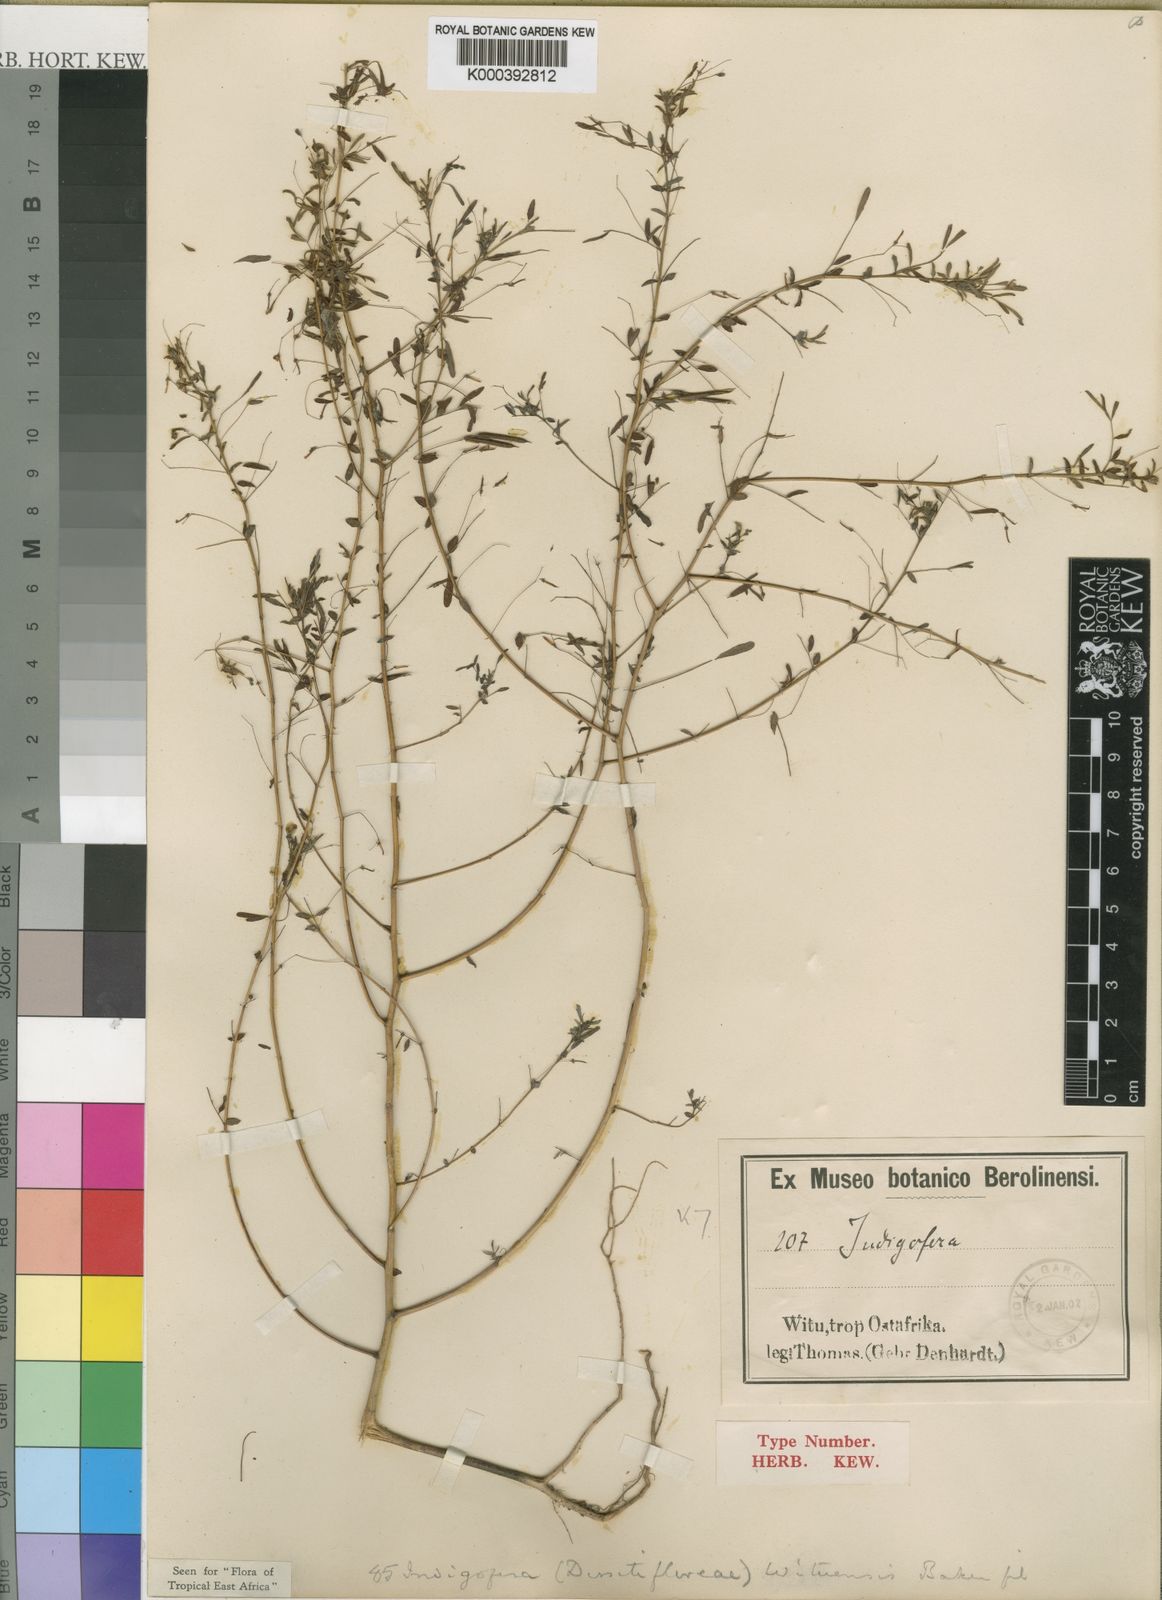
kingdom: Plantae
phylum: Tracheophyta
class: Magnoliopsida
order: Fabales
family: Fabaceae
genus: Indigofera
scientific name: Indigofera wituensis
